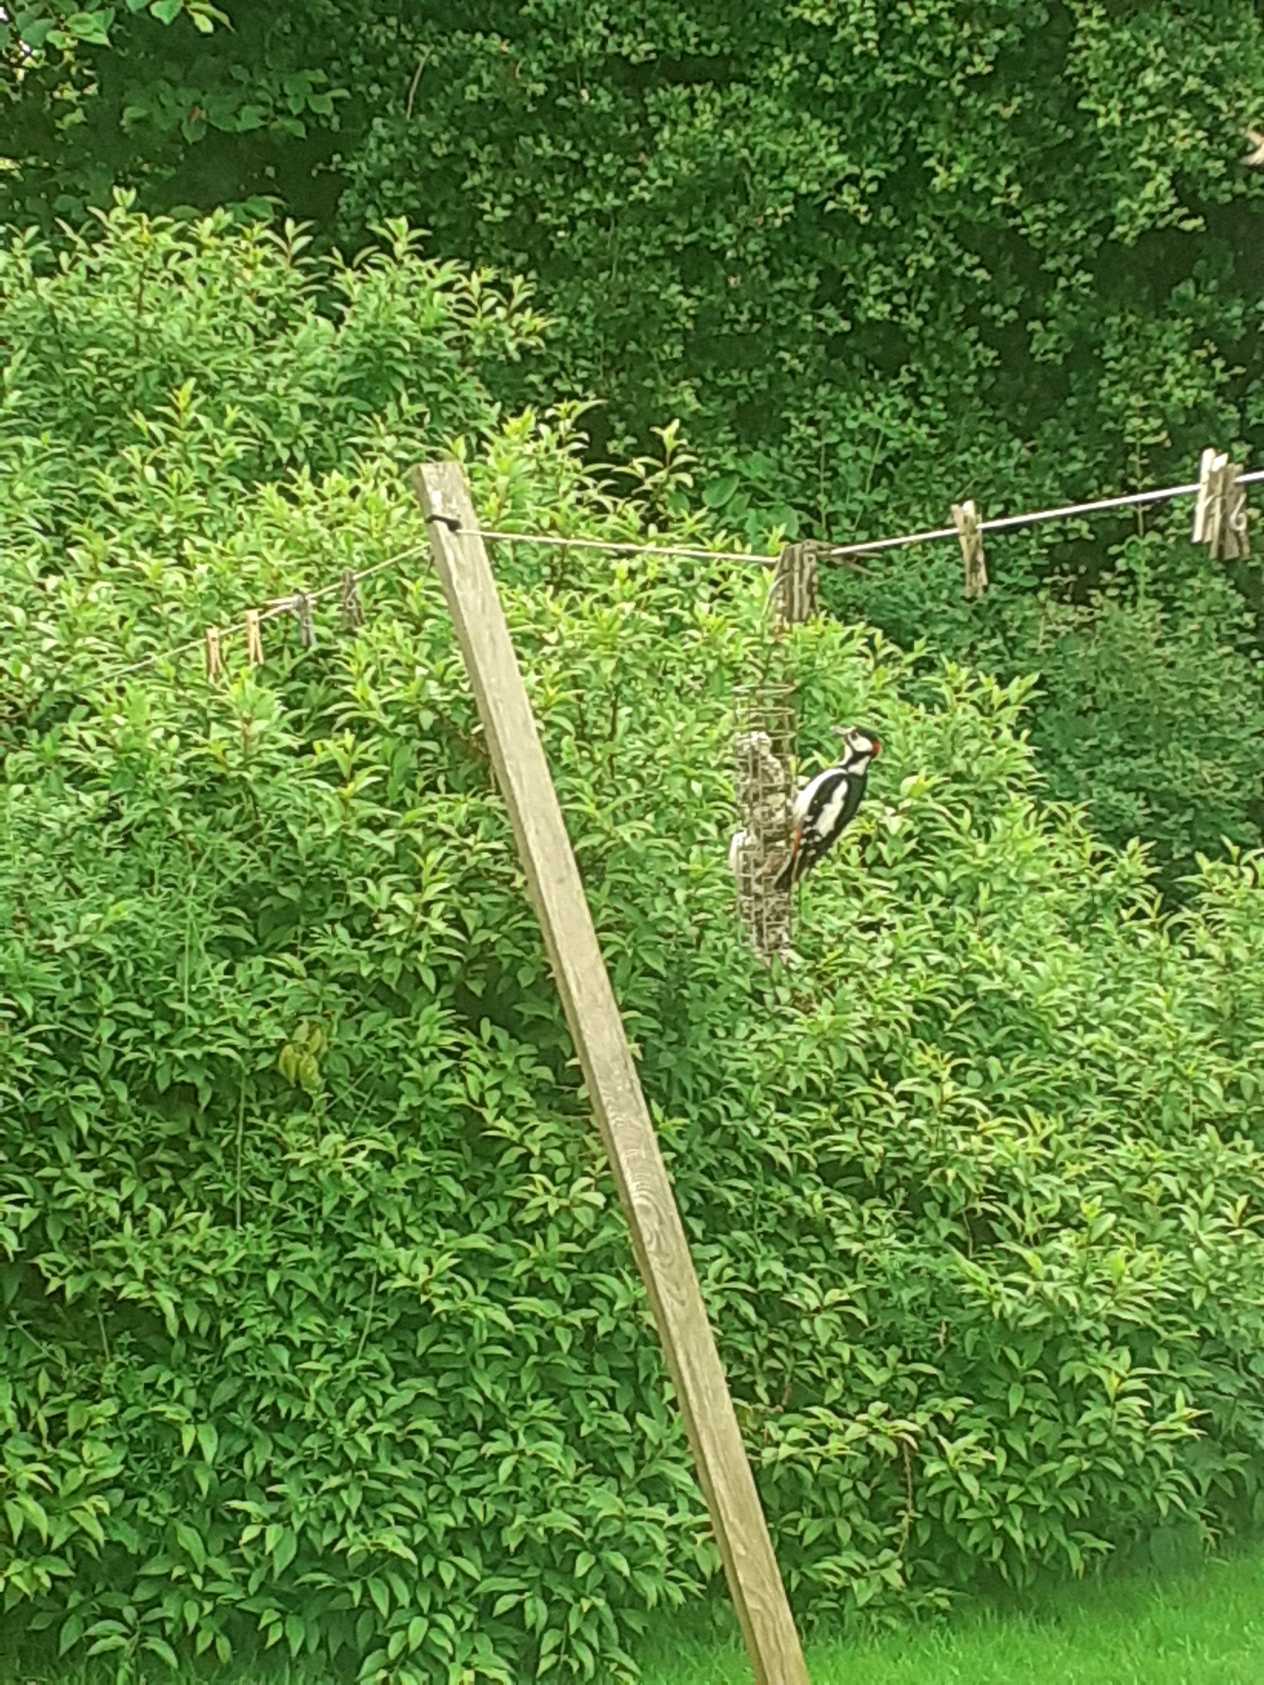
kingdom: Animalia
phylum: Chordata
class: Aves
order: Piciformes
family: Picidae
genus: Dendrocopos
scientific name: Dendrocopos major
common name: Stor flagspætte
